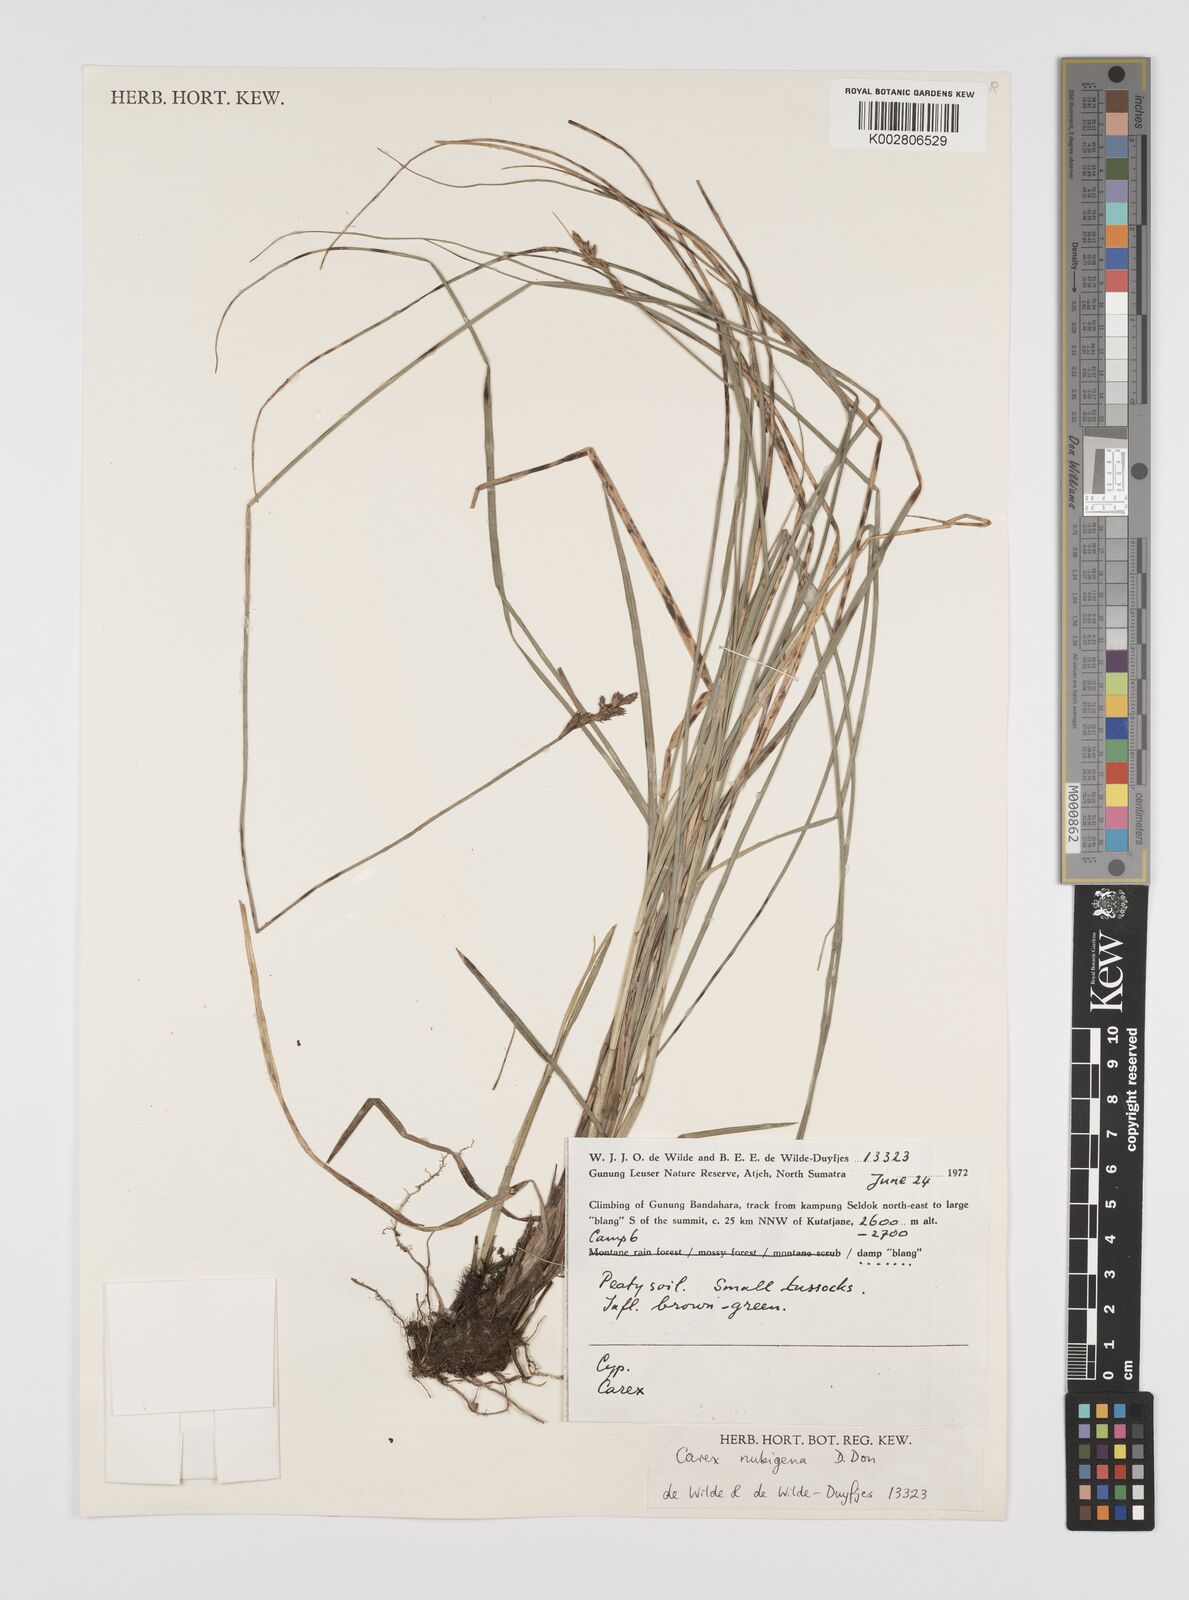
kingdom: Plantae
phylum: Tracheophyta
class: Liliopsida
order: Poales
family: Cyperaceae
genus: Carex
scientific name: Carex
